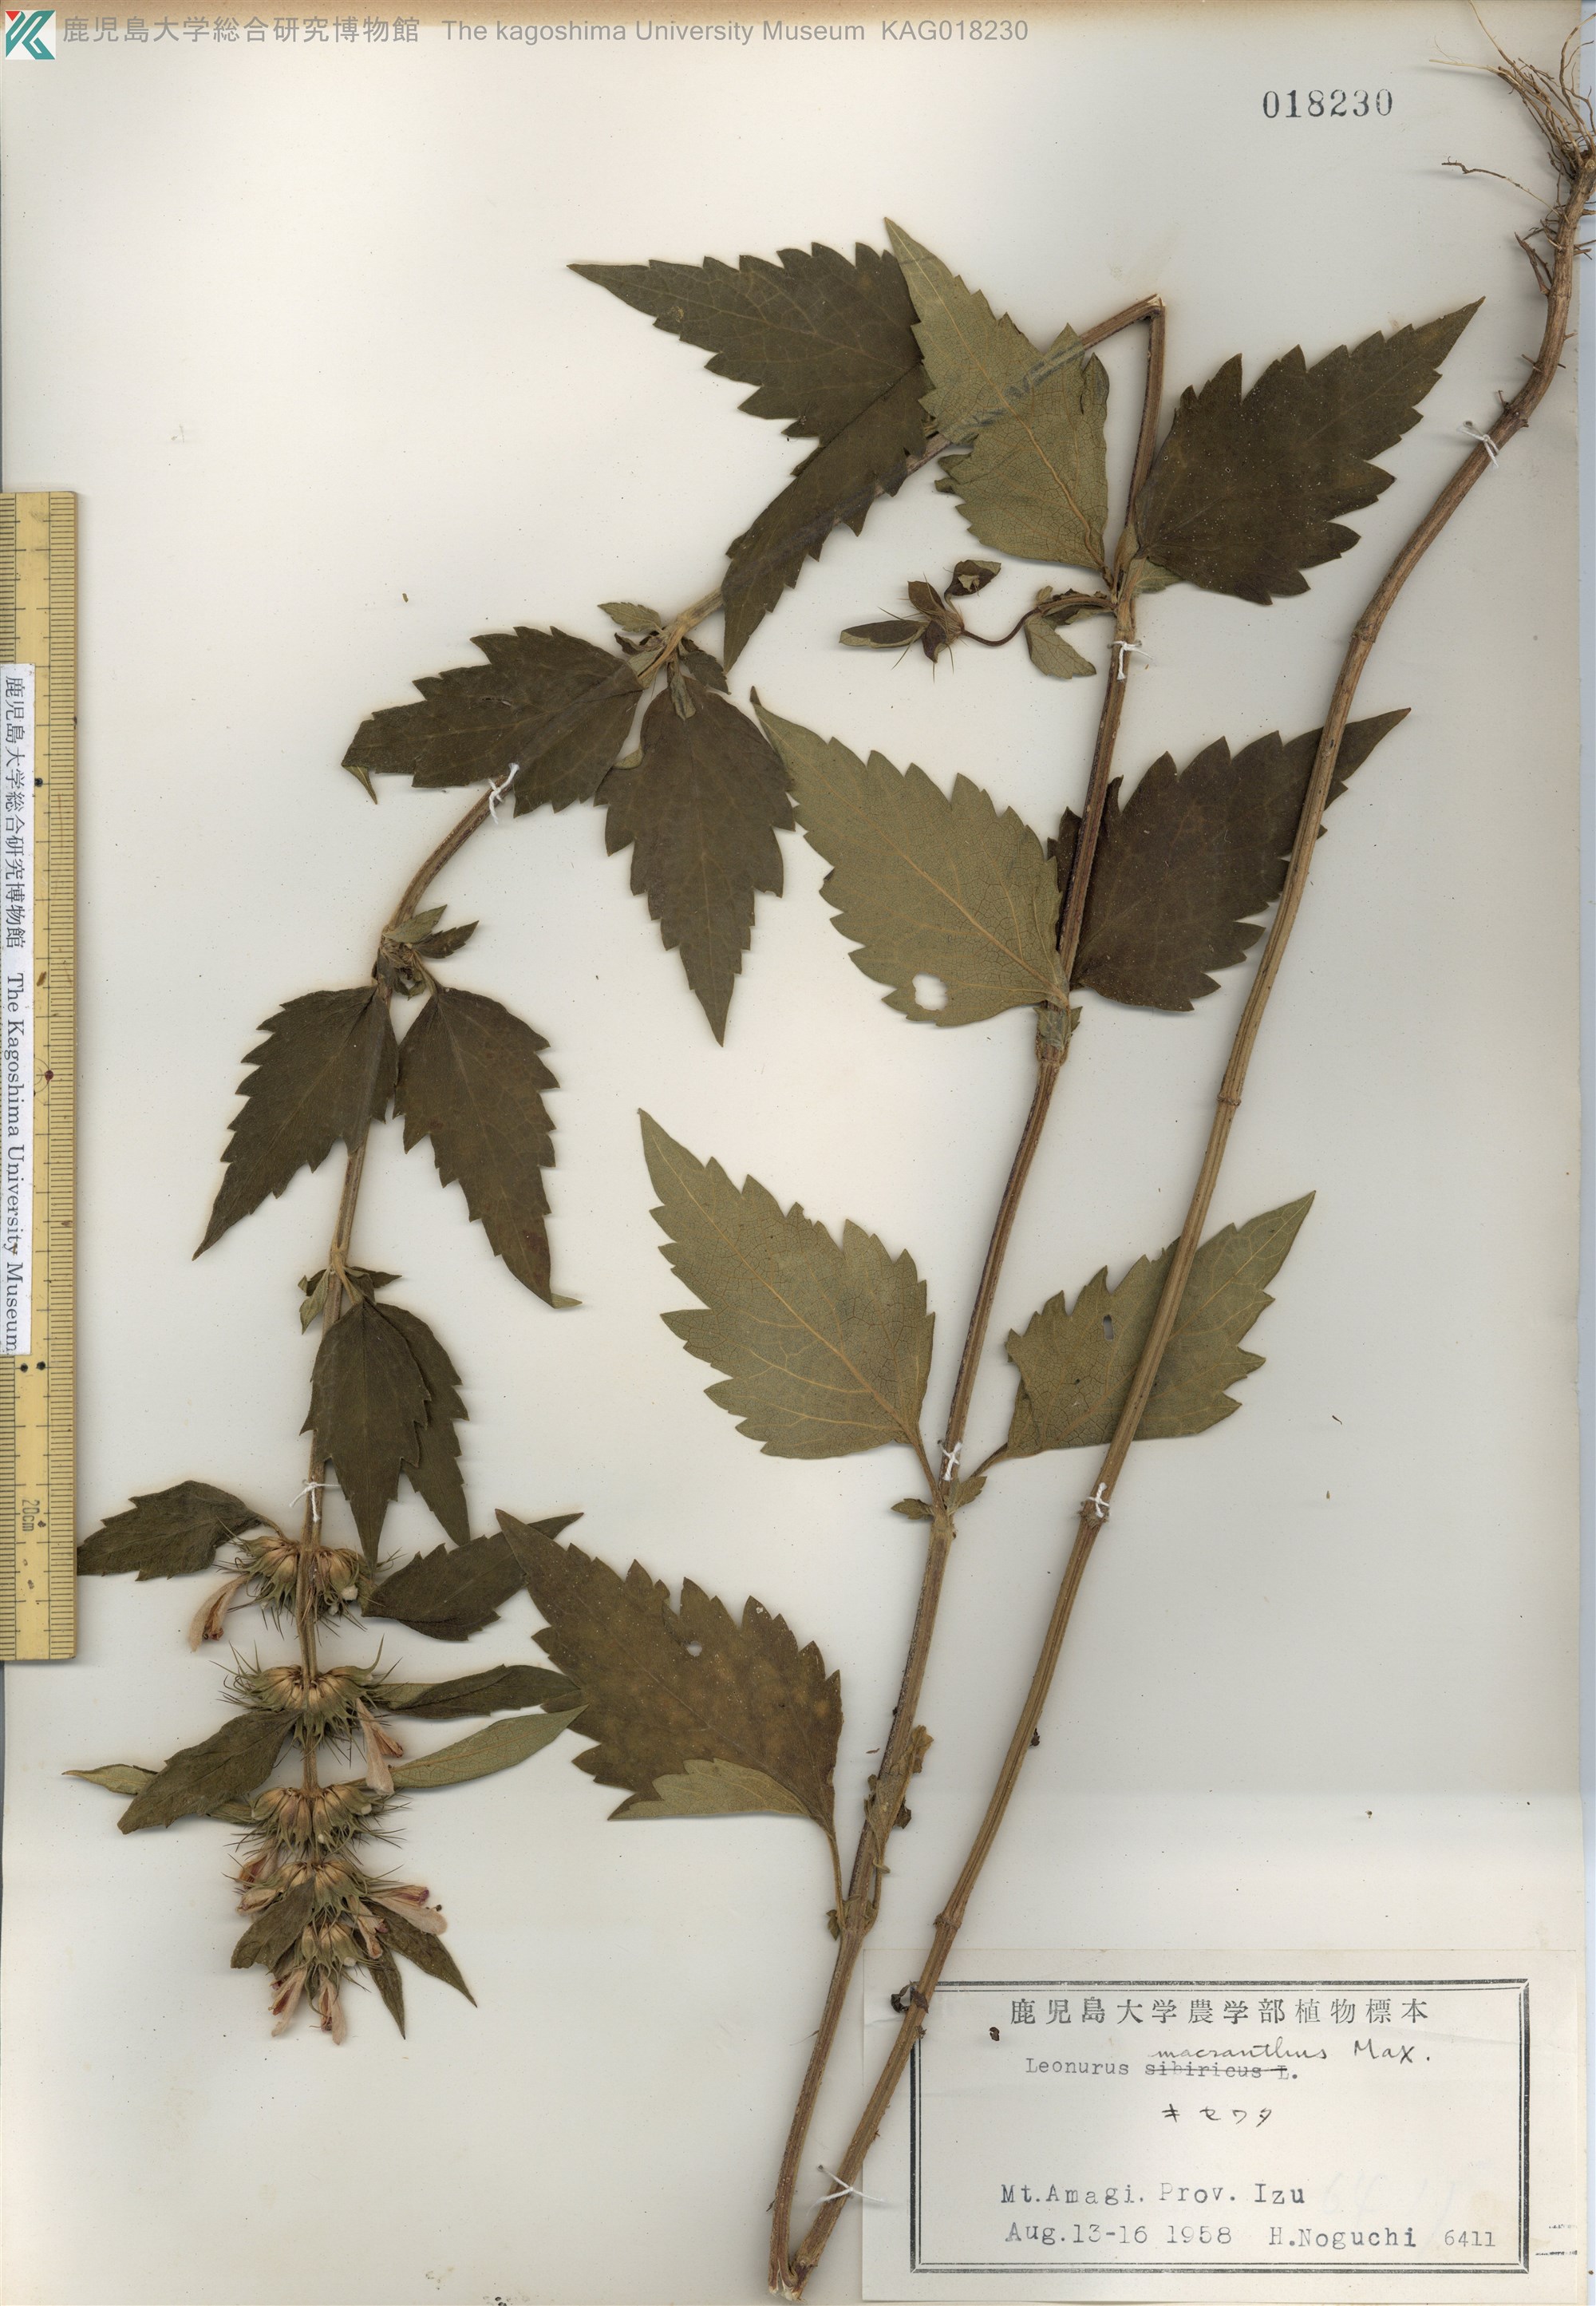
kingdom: Plantae
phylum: Tracheophyta
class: Magnoliopsida
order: Lamiales
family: Lamiaceae
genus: Leonurus
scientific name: Leonurus macranthus
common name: キセワタ
